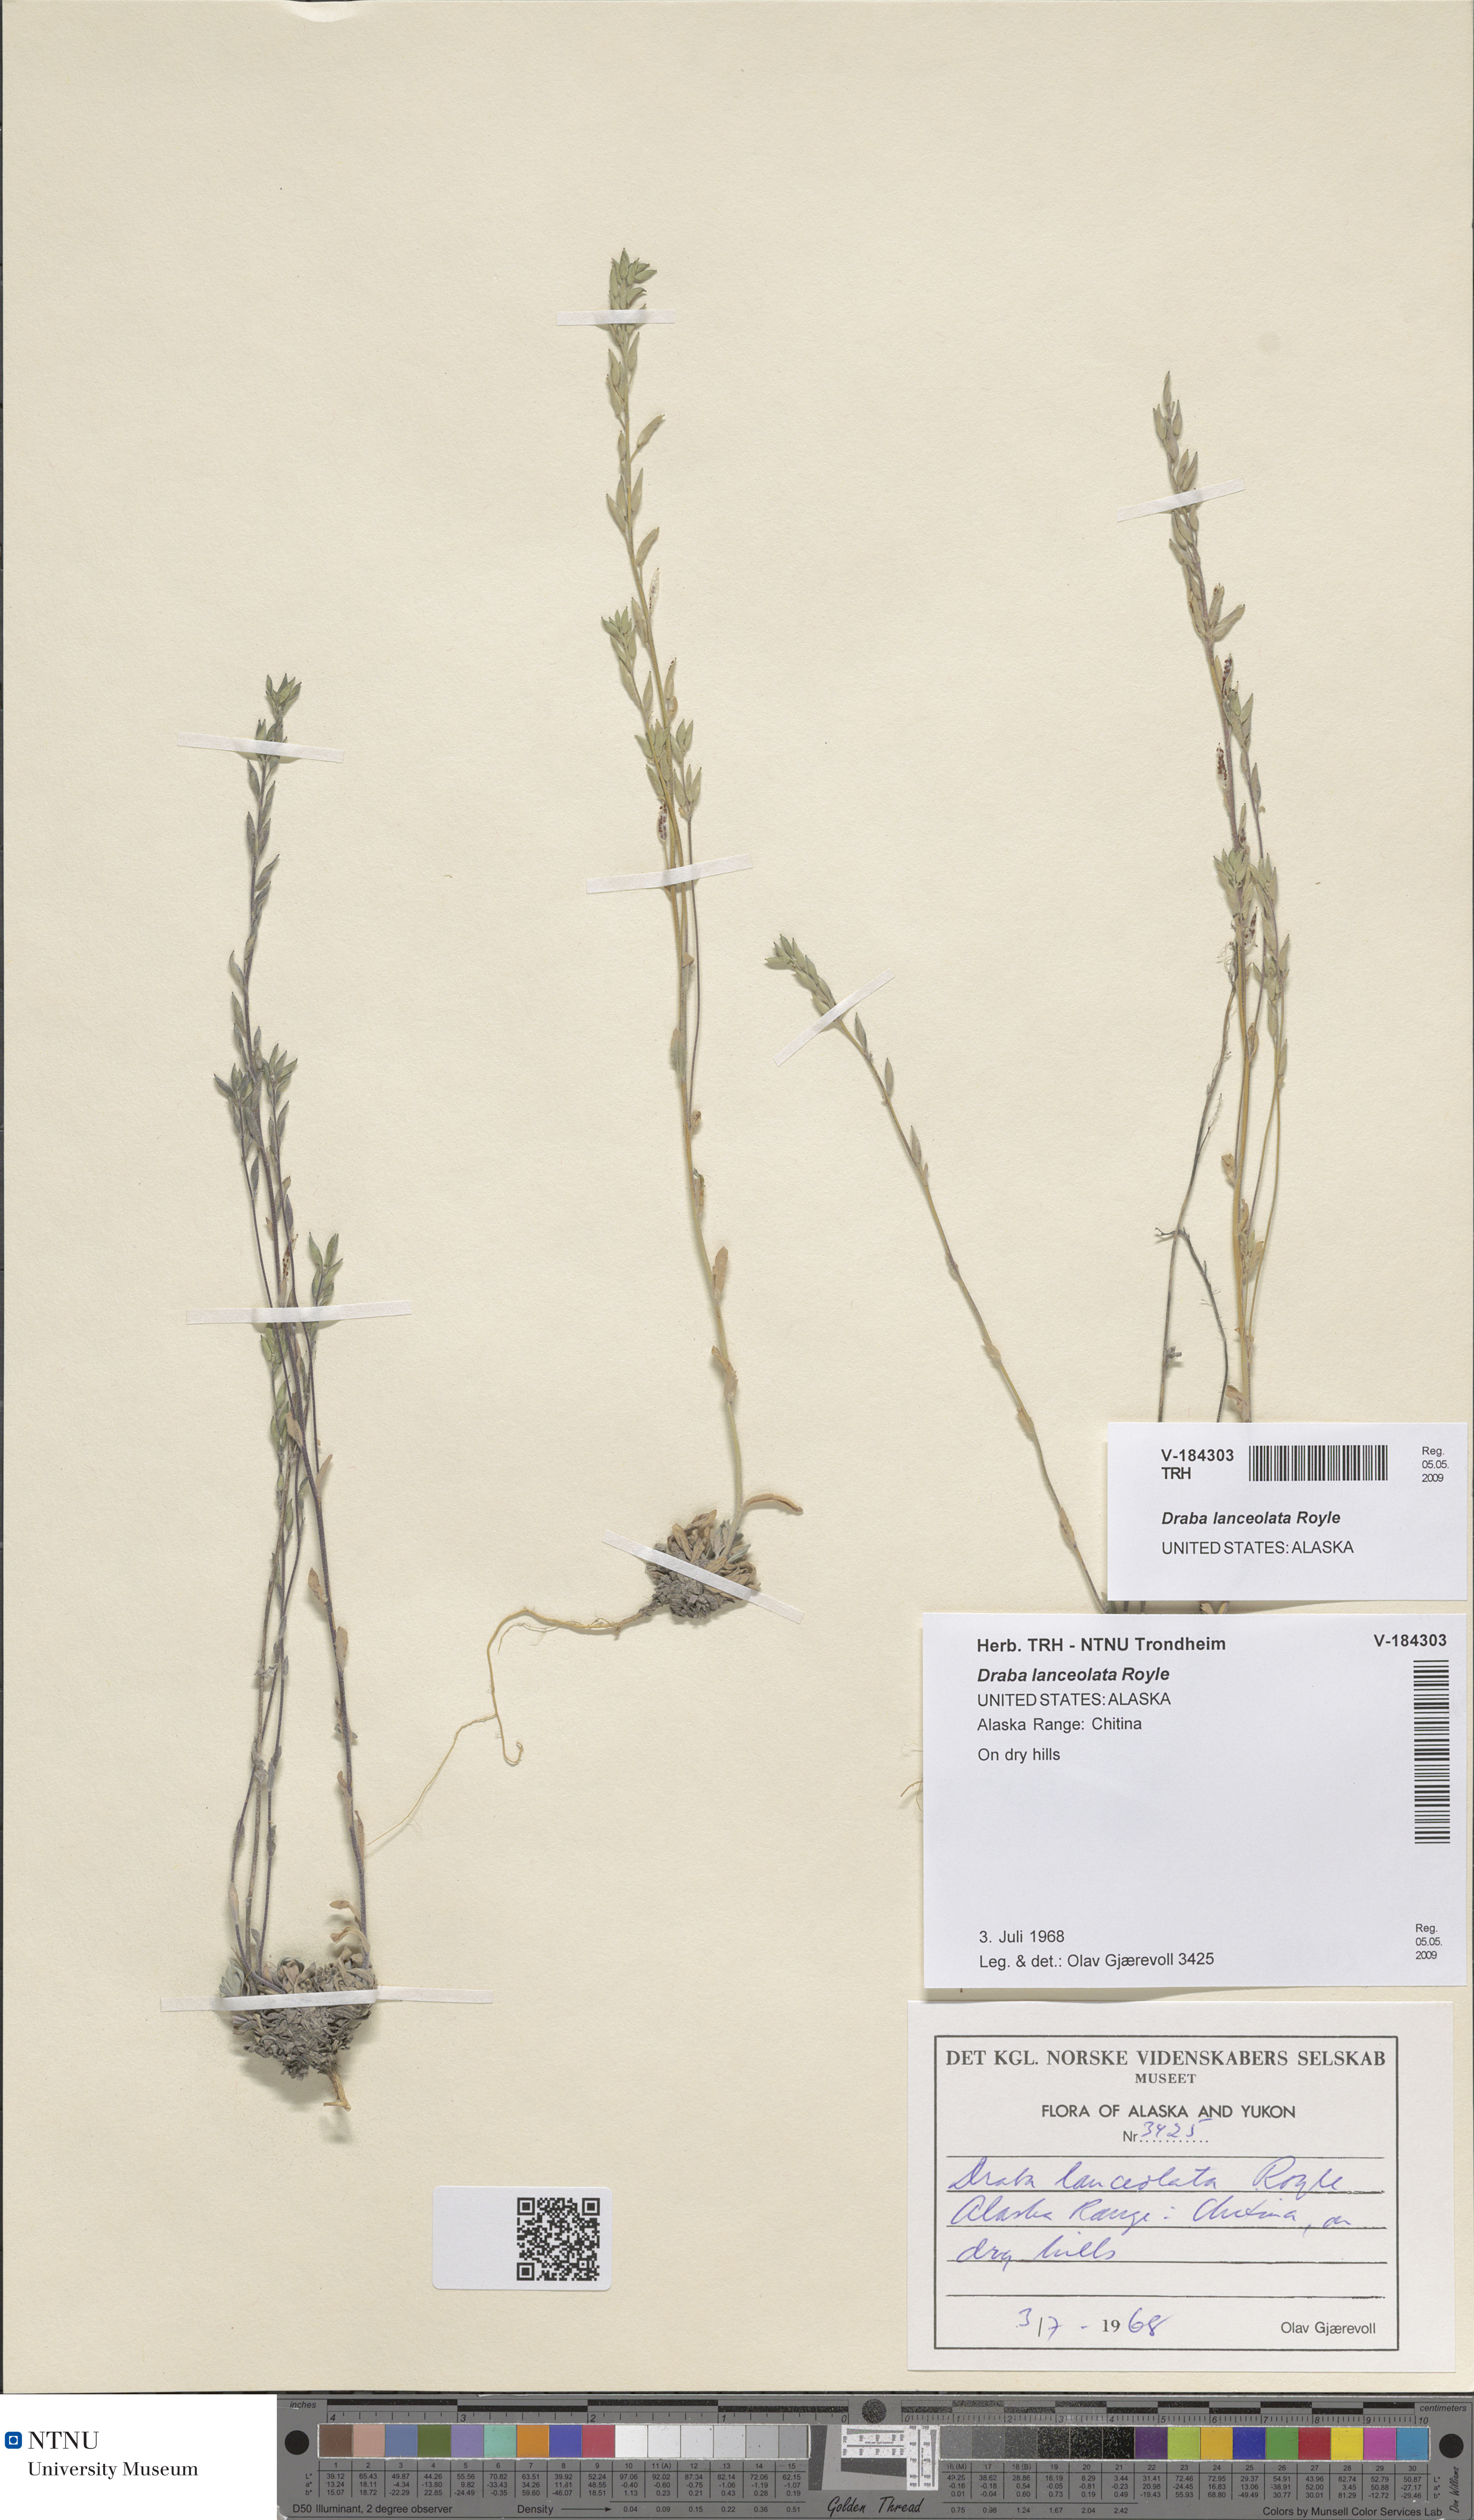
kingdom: Plantae
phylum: Tracheophyta
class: Magnoliopsida
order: Brassicales
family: Brassicaceae
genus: Draba
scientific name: Draba lanceolata
